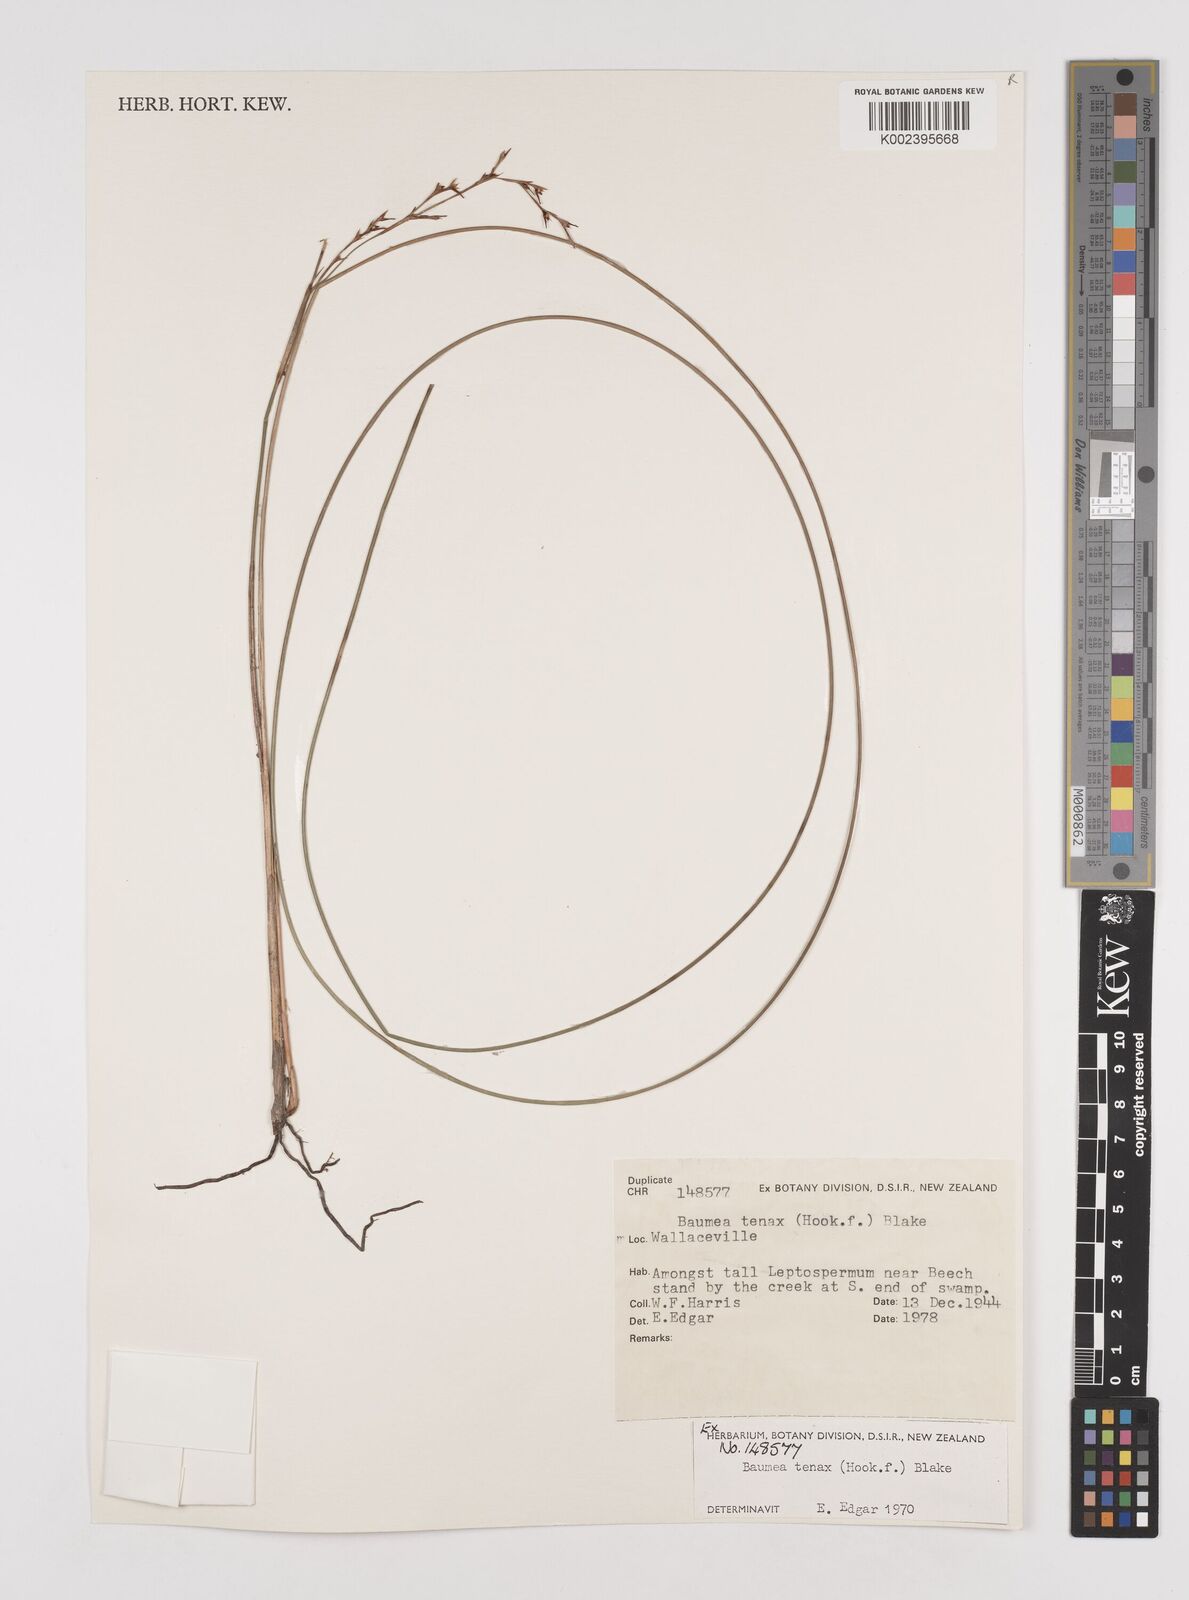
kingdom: Plantae
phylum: Tracheophyta
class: Liliopsida
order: Poales
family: Cyperaceae
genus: Machaerina
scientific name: Machaerina tenax
